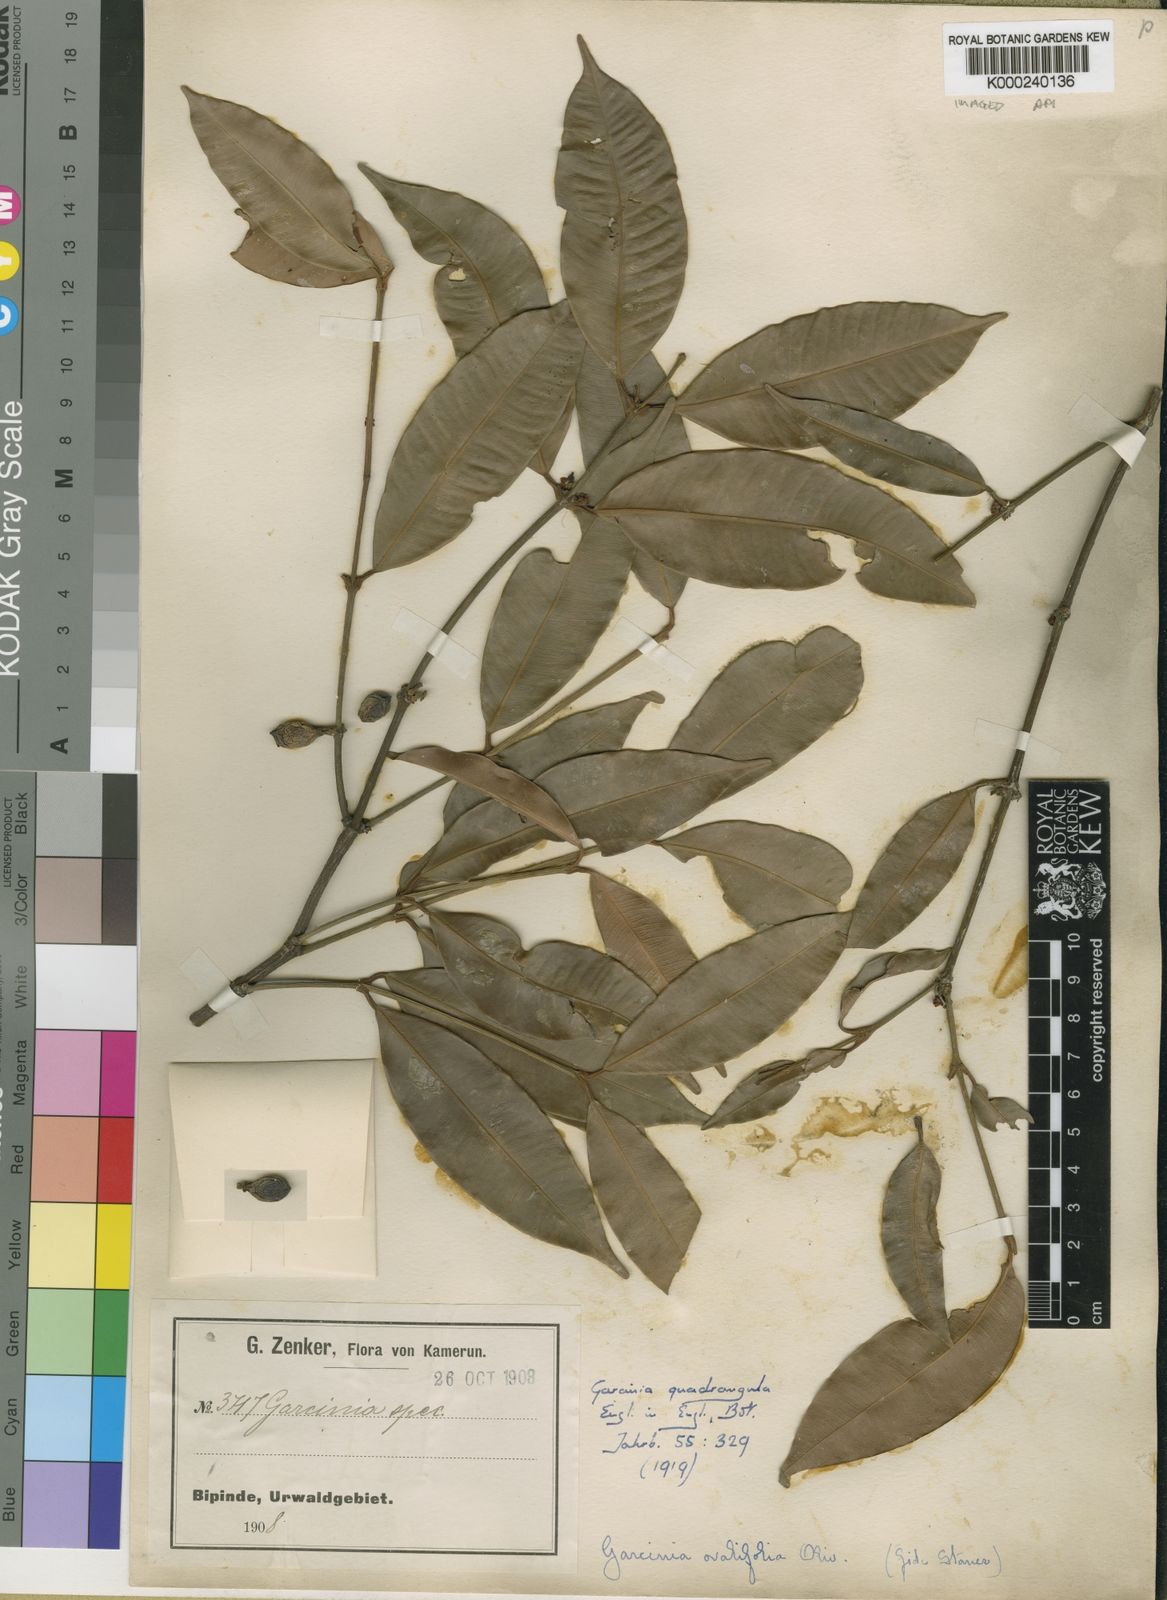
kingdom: Plantae
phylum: Tracheophyta
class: Magnoliopsida
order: Malpighiales
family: Clusiaceae
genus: Garcinia
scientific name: Garcinia ovalifolia
